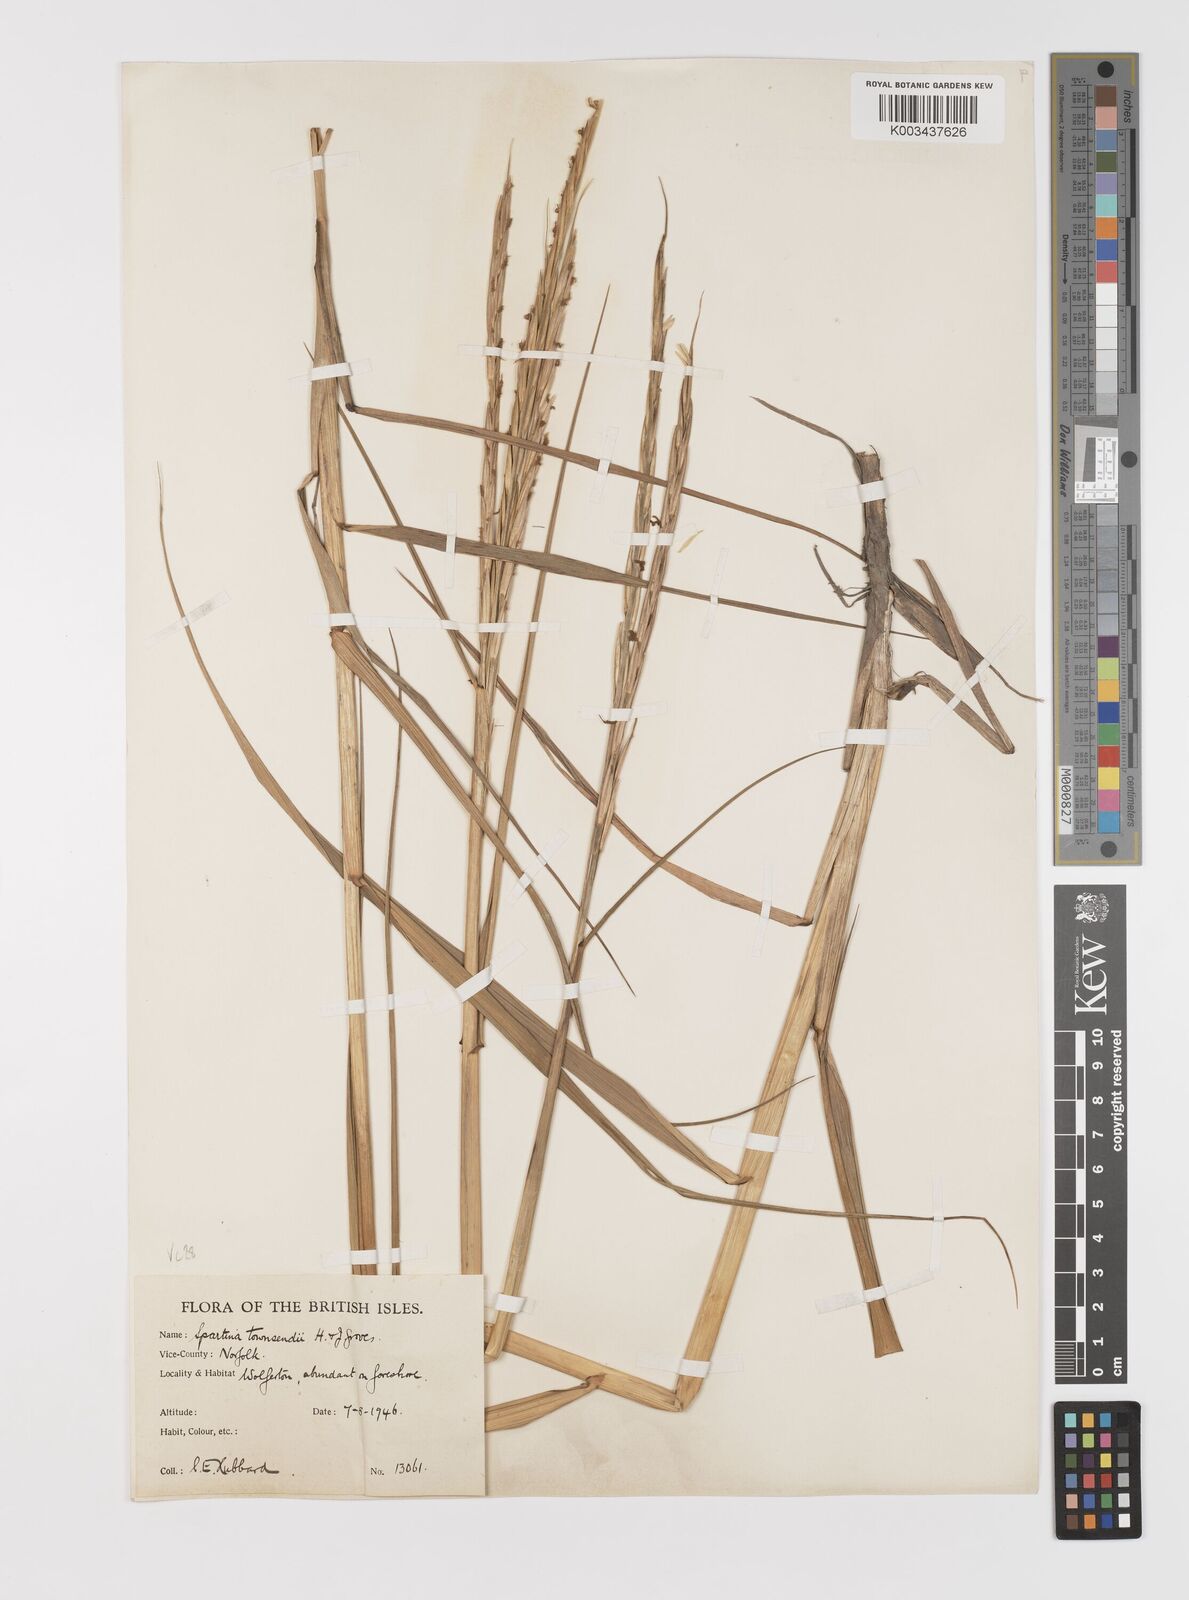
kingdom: Plantae
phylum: Tracheophyta
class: Liliopsida
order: Poales
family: Poaceae
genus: Sporobolus
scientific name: Sporobolus anglicus
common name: English cordgrass
